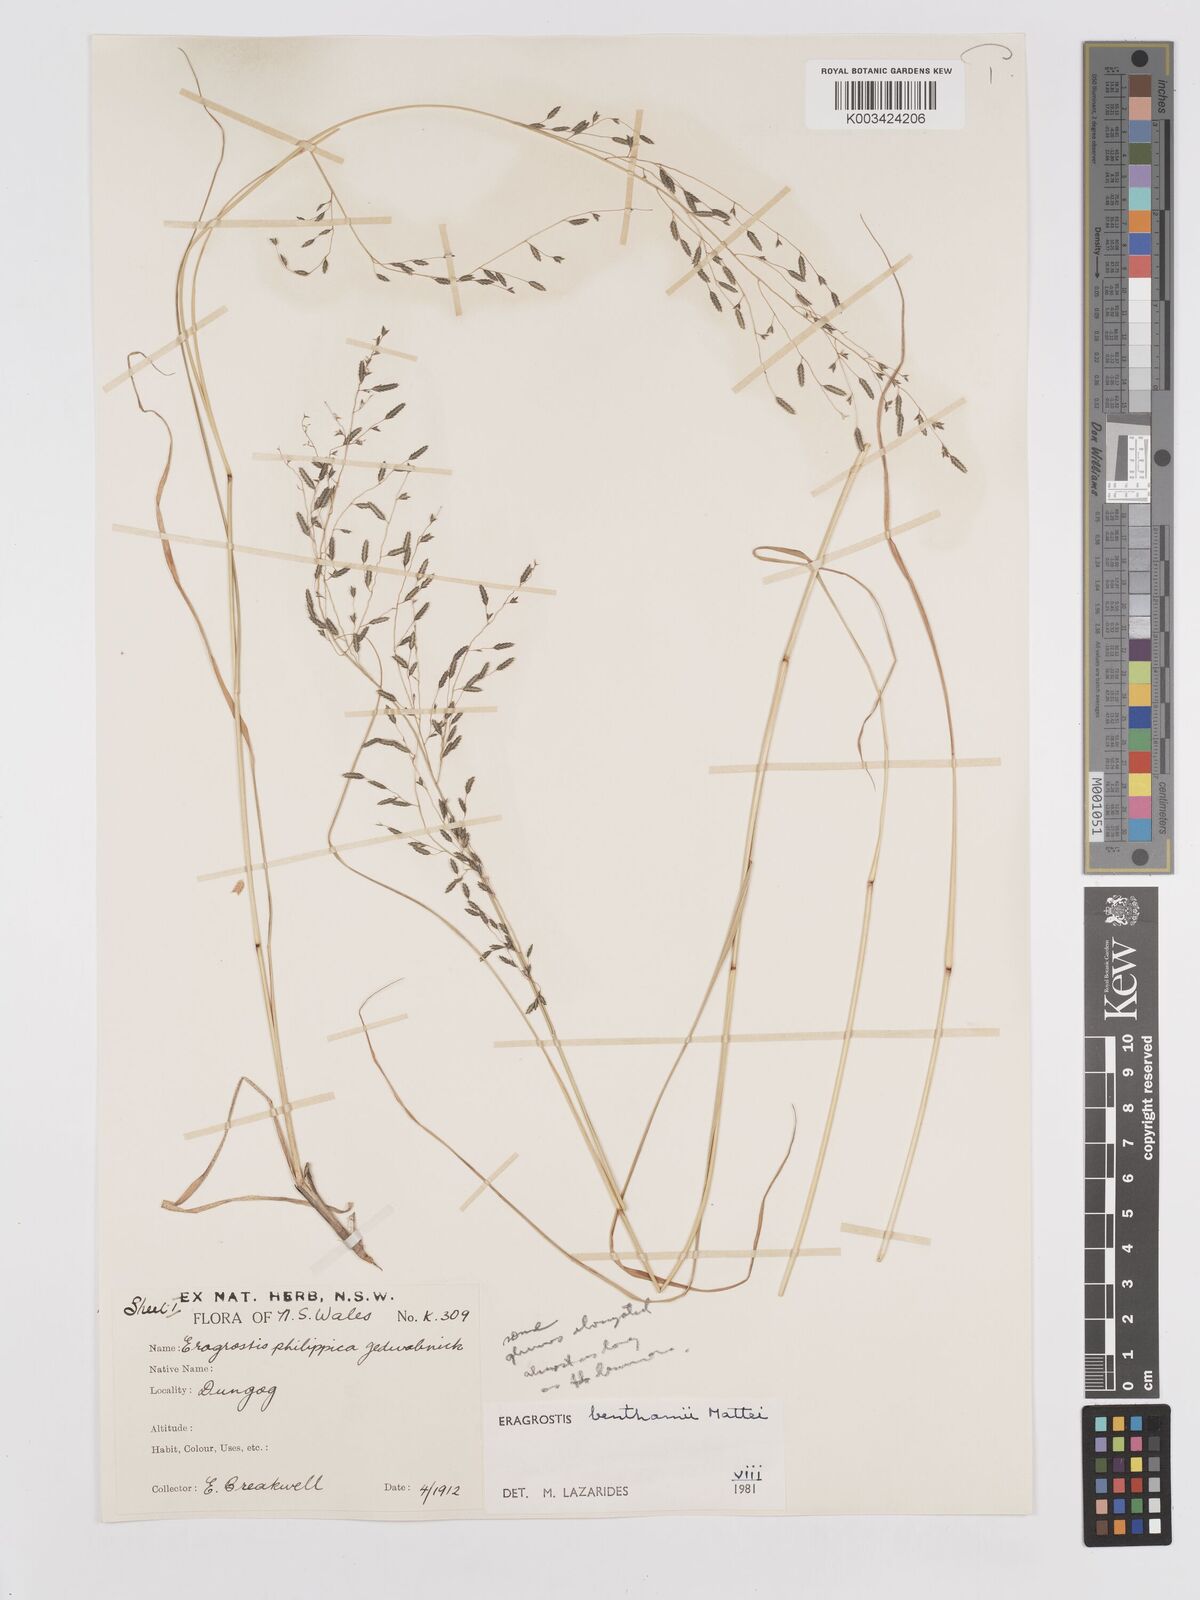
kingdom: Plantae
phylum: Tracheophyta
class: Liliopsida
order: Poales
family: Poaceae
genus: Eragrostis
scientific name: Eragrostis brownii
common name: Lovegrass
